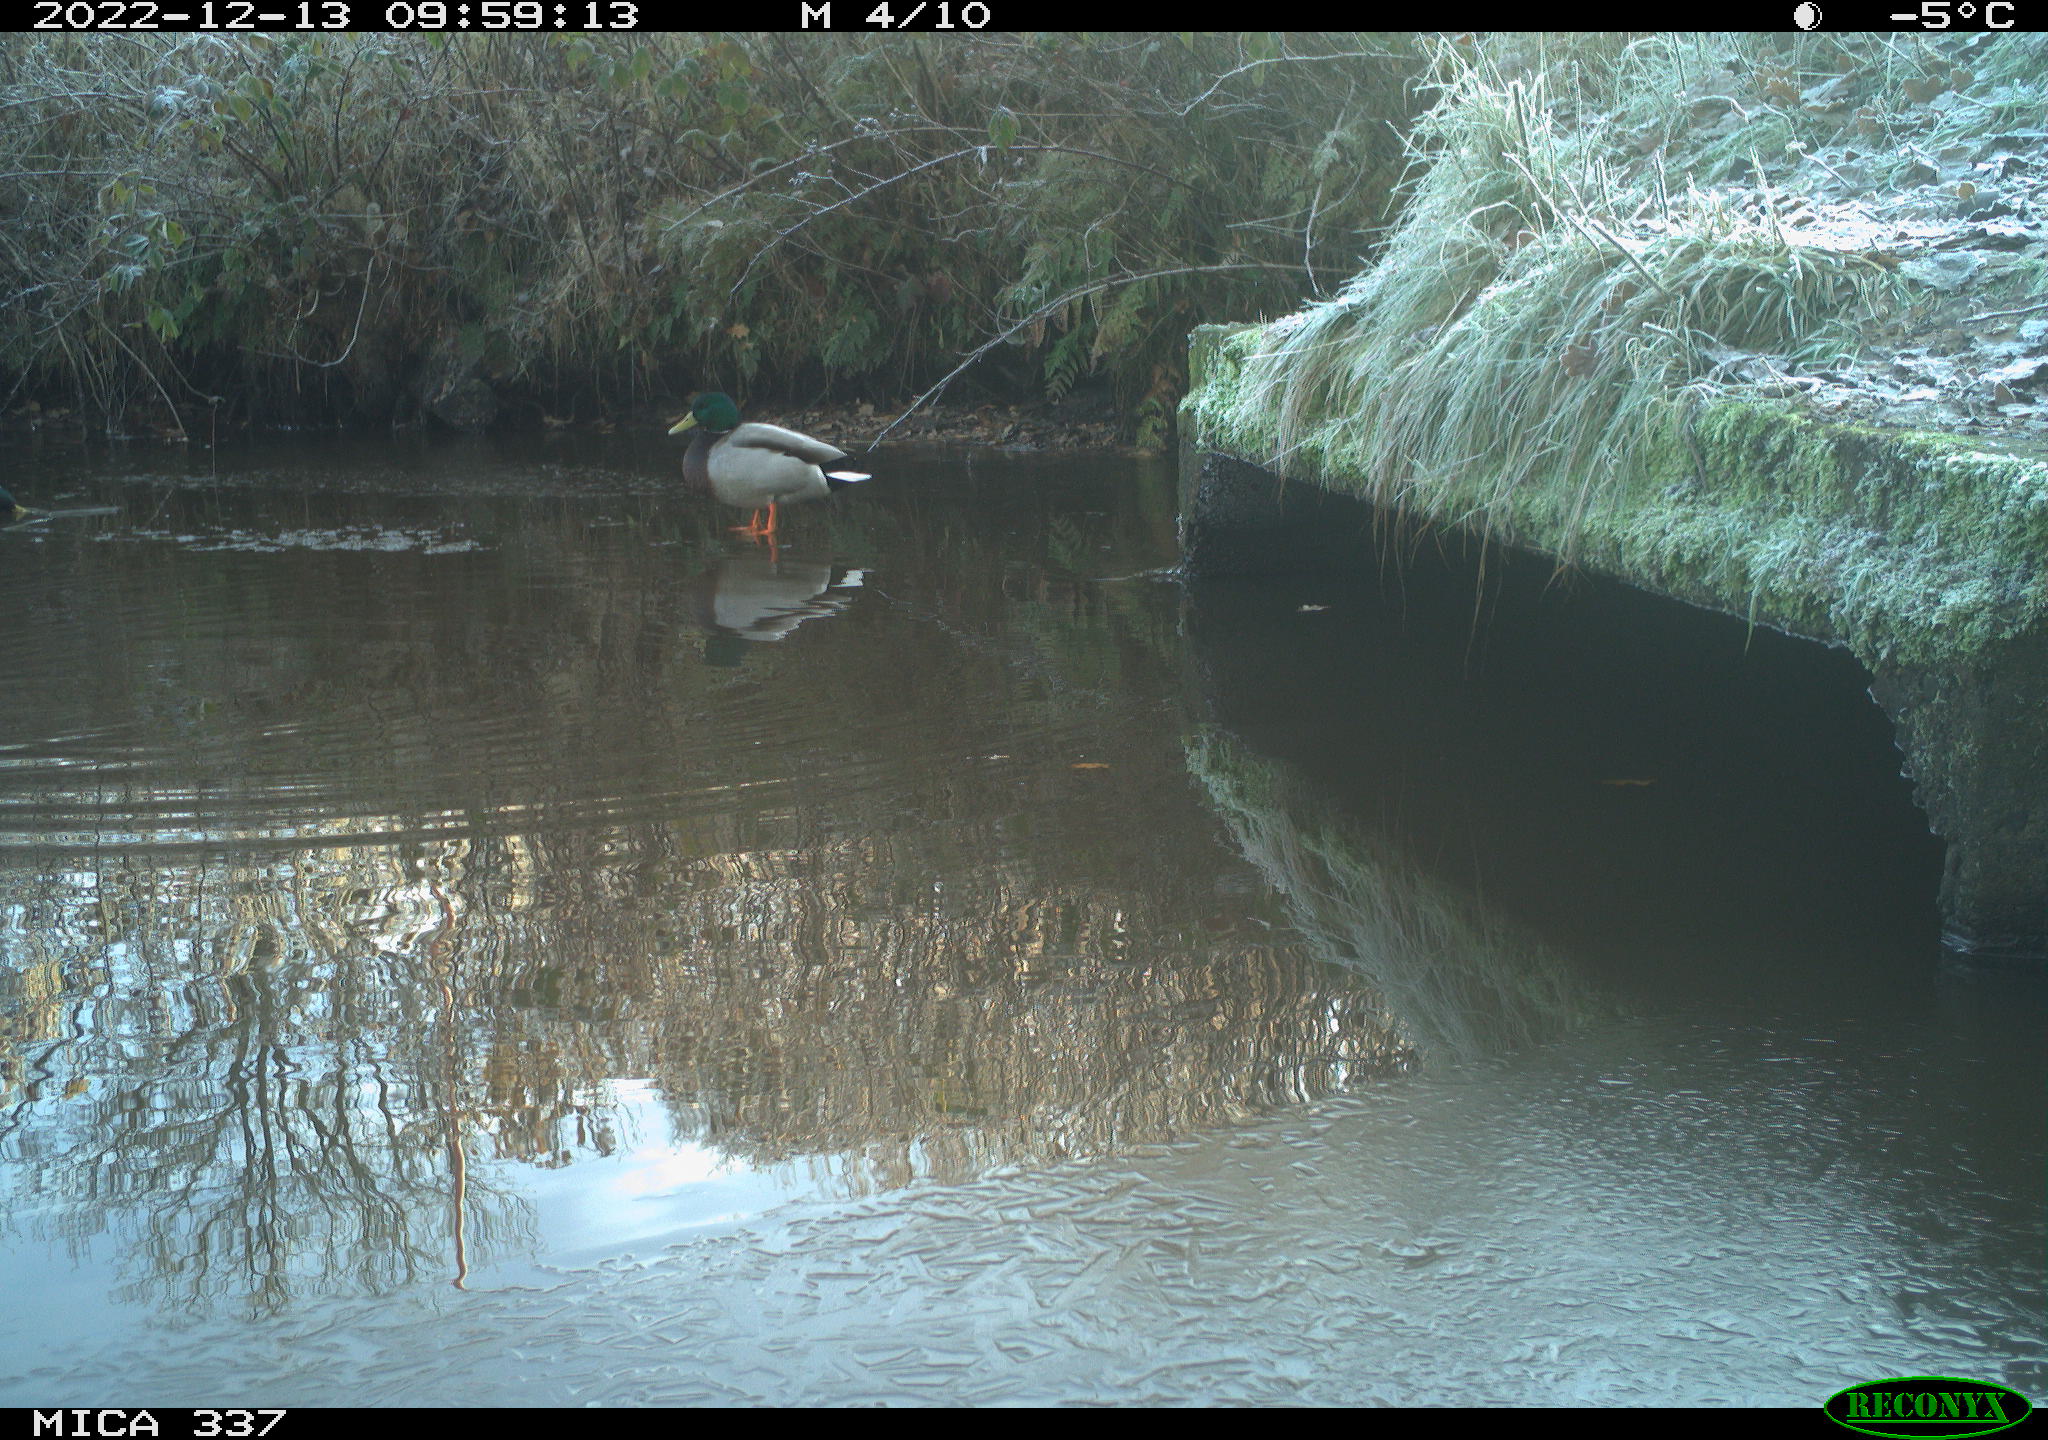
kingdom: Animalia
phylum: Chordata
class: Aves
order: Anseriformes
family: Anatidae
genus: Anas
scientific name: Anas
